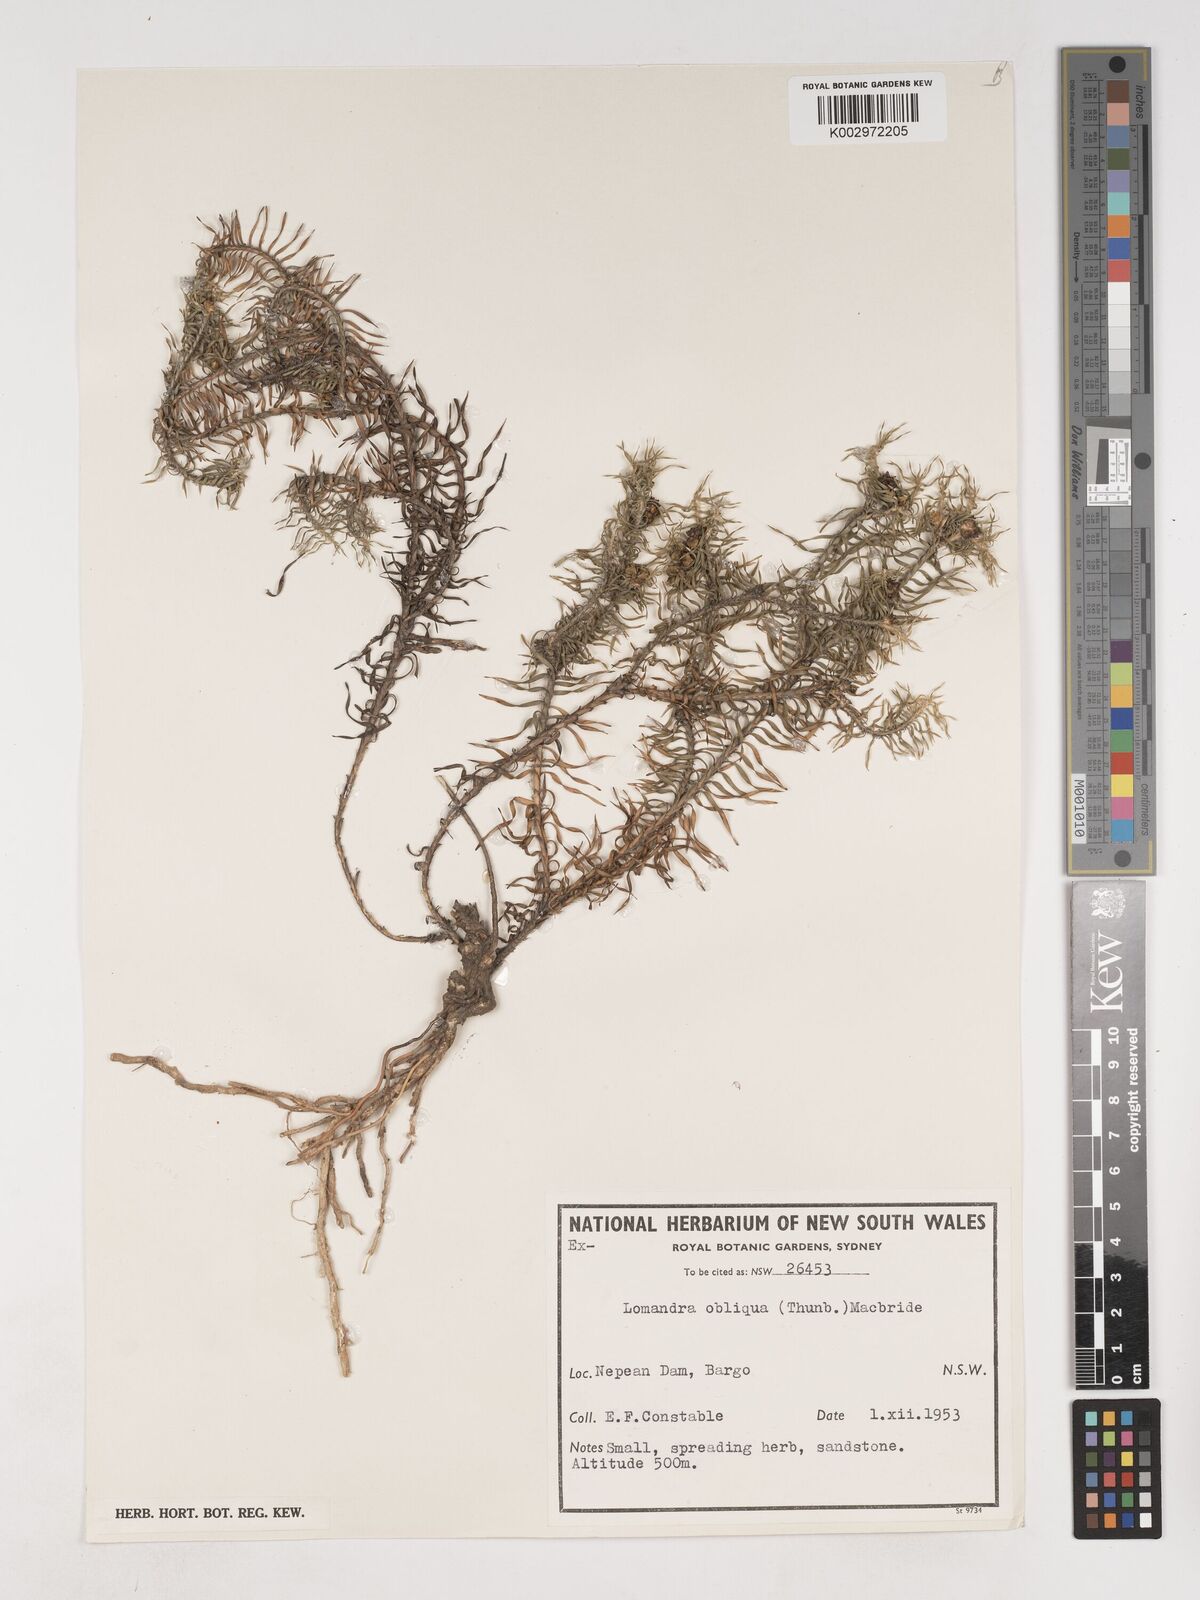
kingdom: Plantae
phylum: Tracheophyta
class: Liliopsida
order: Asparagales
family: Asparagaceae
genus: Lomandra
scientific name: Lomandra obliqua
